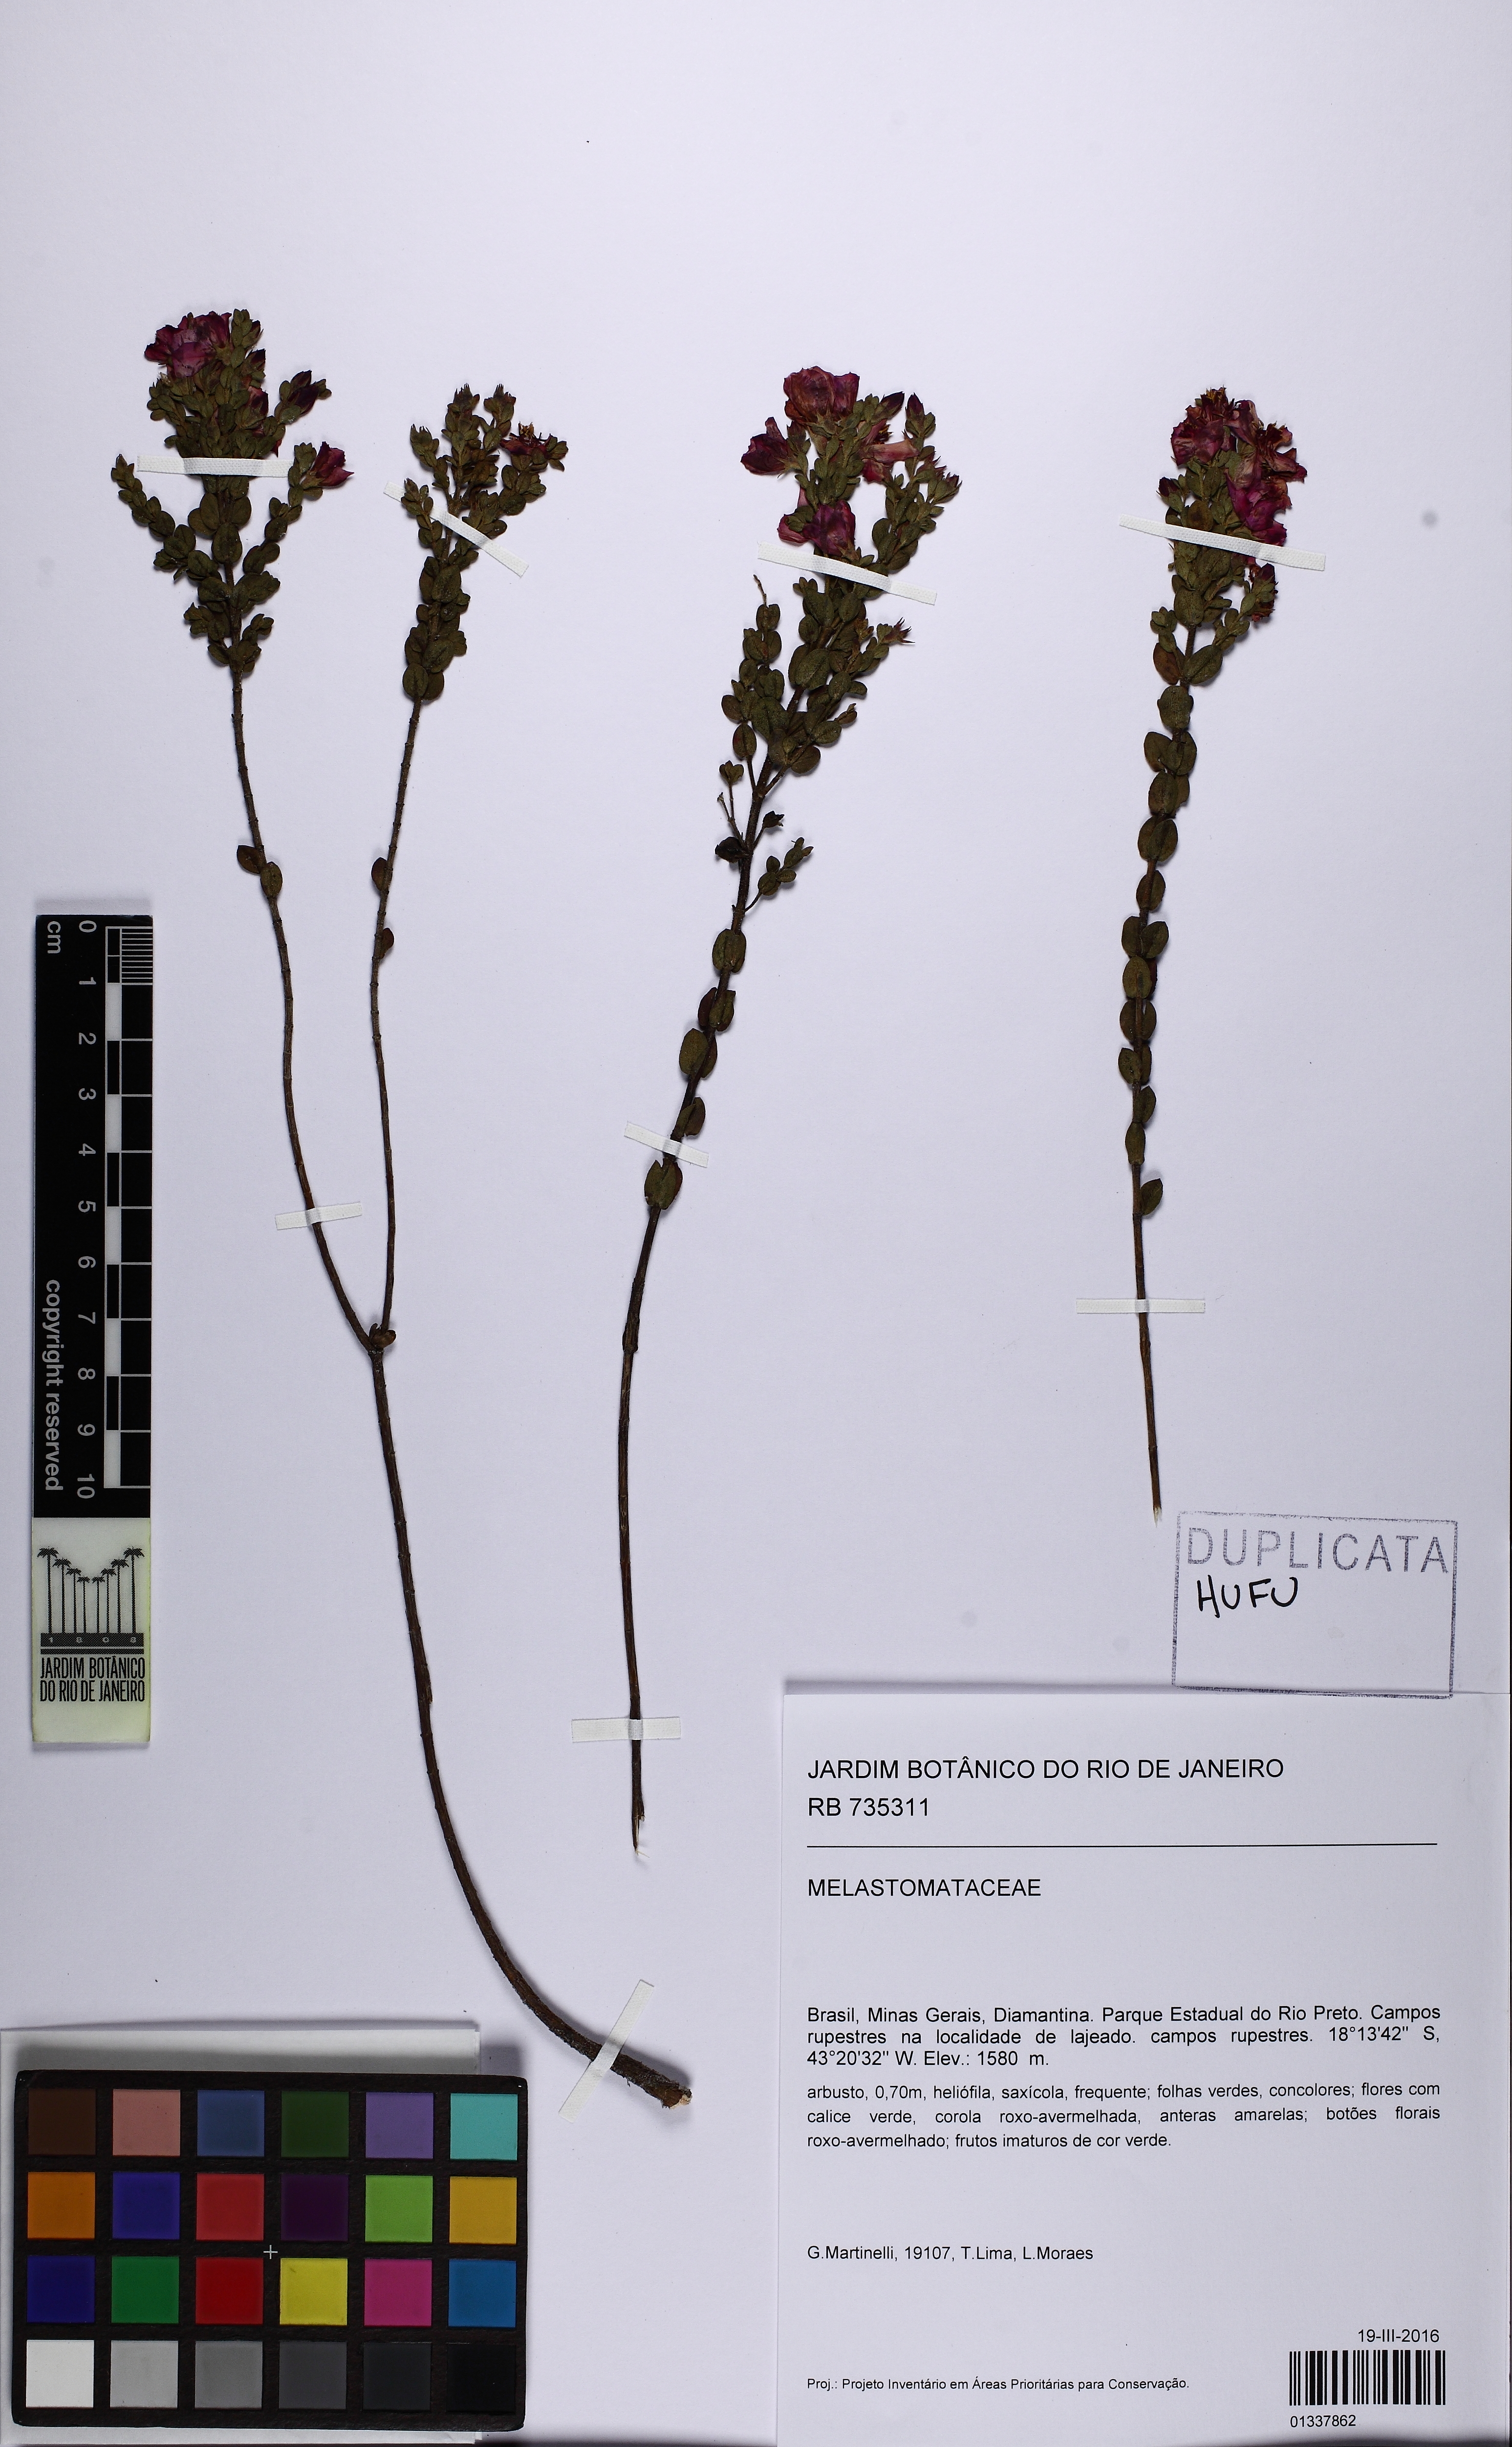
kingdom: Plantae
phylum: Tracheophyta
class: Magnoliopsida
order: Myrtales
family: Melastomataceae
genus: Microlicia
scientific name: Microlicia tomentella
